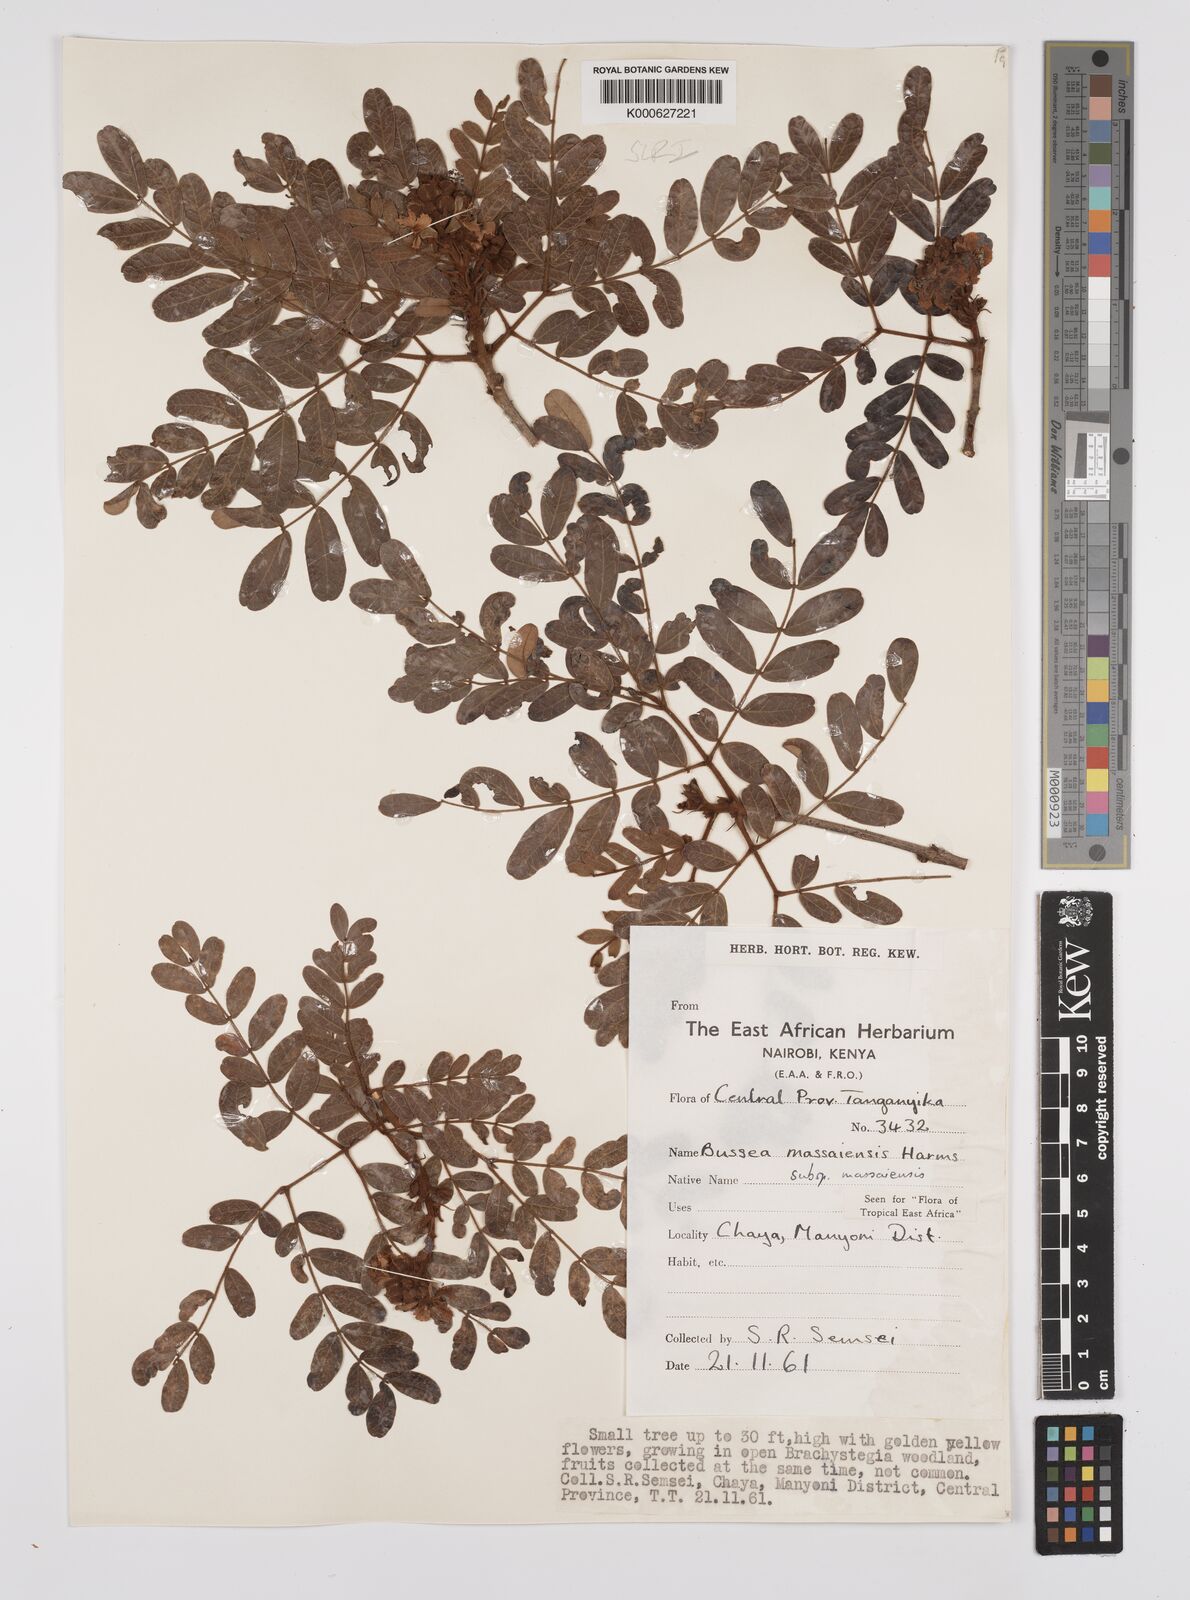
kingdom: Plantae
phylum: Tracheophyta
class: Magnoliopsida
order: Fabales
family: Fabaceae
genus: Bussea
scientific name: Bussea
